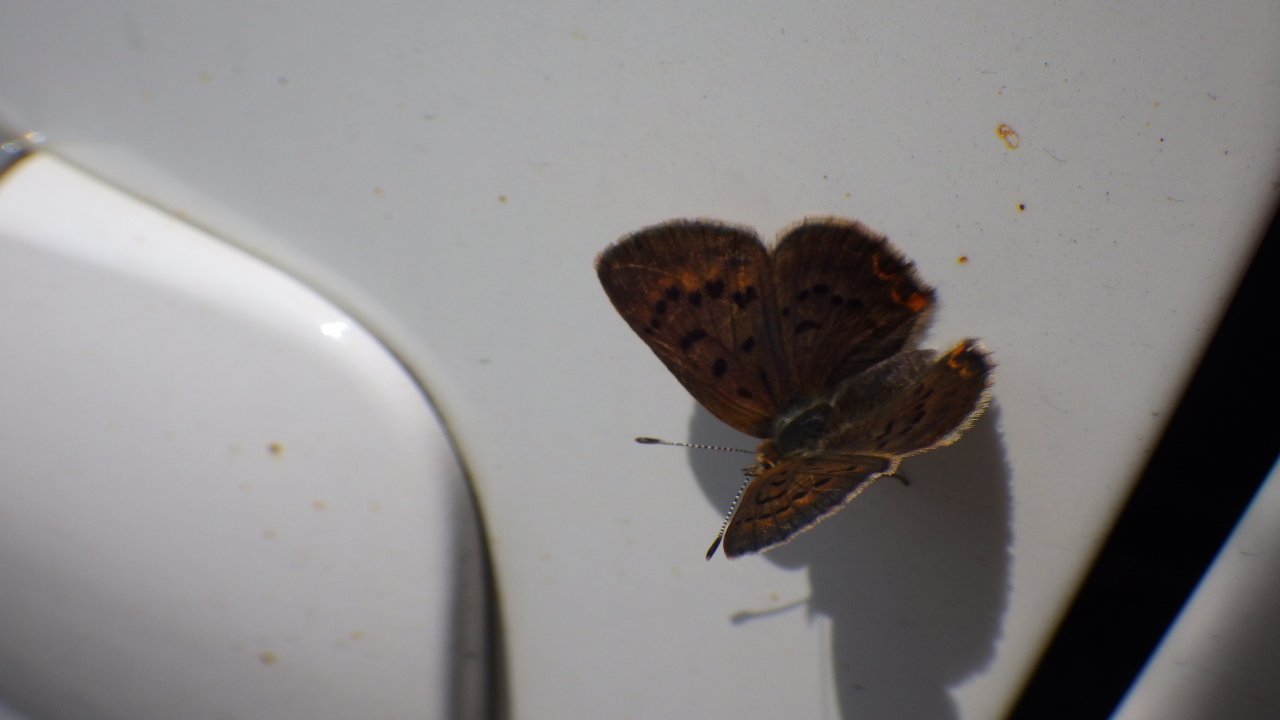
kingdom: Animalia
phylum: Arthropoda
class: Insecta
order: Lepidoptera
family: Lycaenidae
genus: Epidemia
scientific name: Epidemia dorcas
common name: Dorcas Copper
